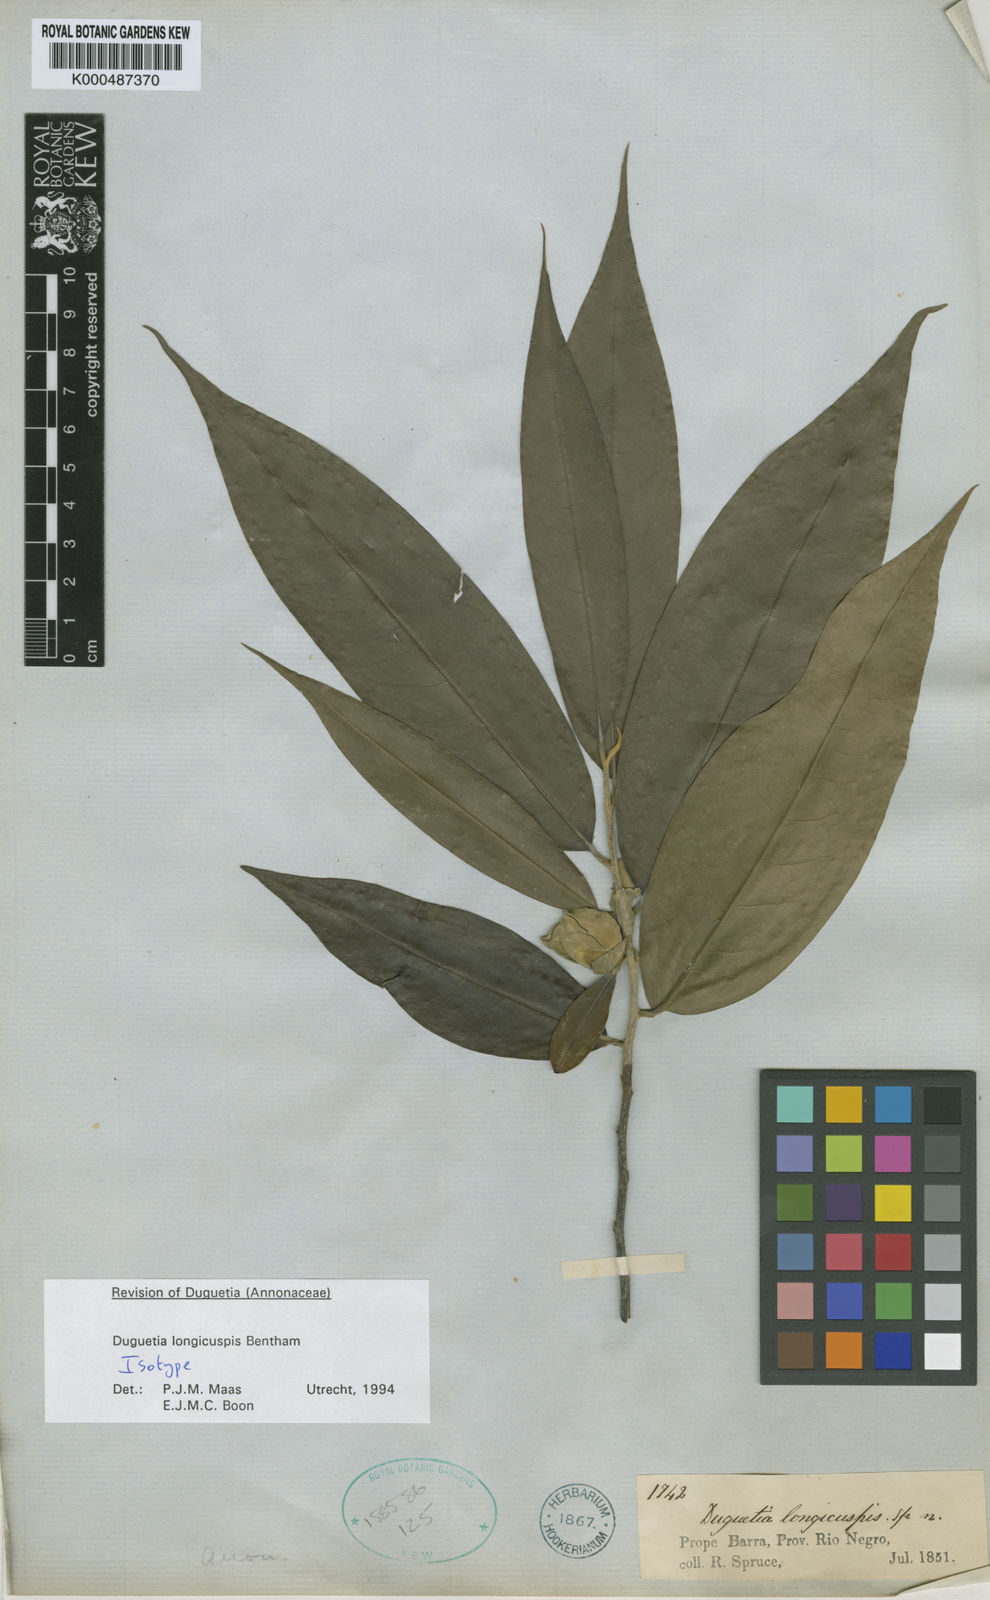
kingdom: Plantae
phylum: Tracheophyta
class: Magnoliopsida
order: Magnoliales
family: Annonaceae
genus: Duguetia
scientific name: Duguetia longicuspis
